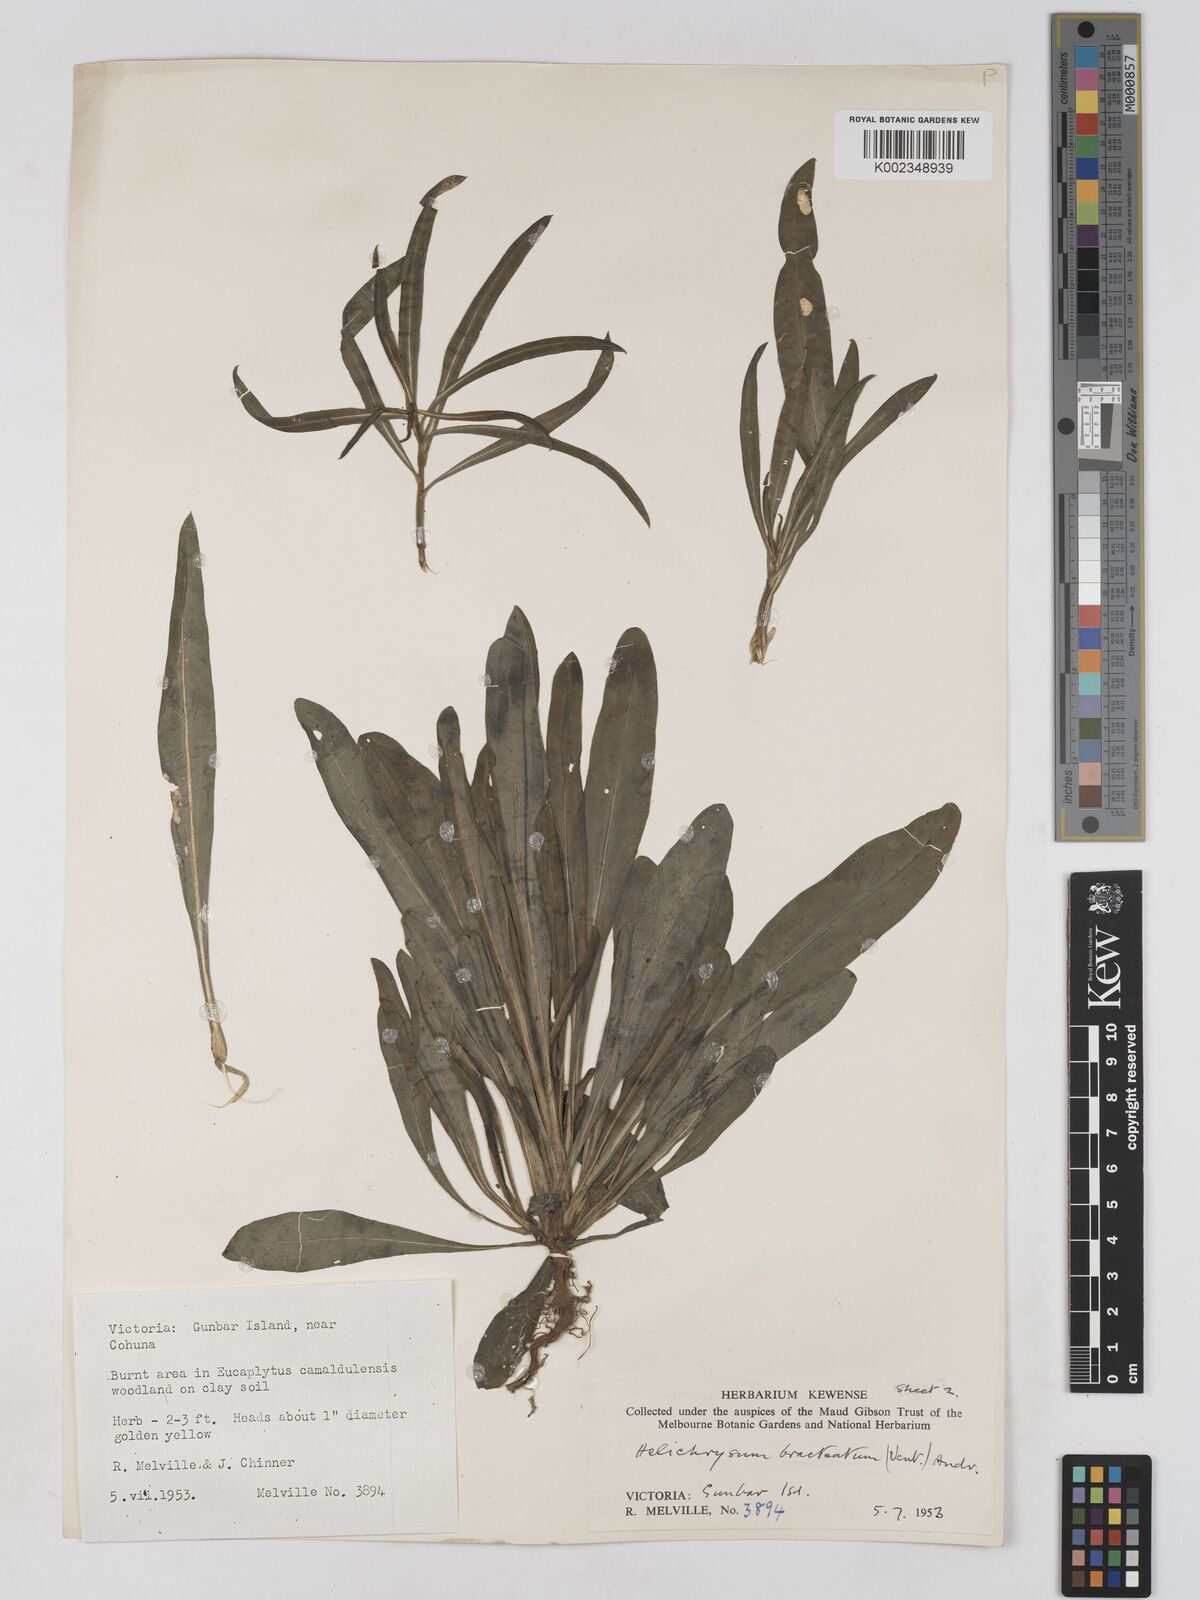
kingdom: Plantae
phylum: Tracheophyta
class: Magnoliopsida
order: Asterales
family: Asteraceae
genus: Xerochrysum
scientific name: Xerochrysum bracteatum
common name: Bracted strawflower
